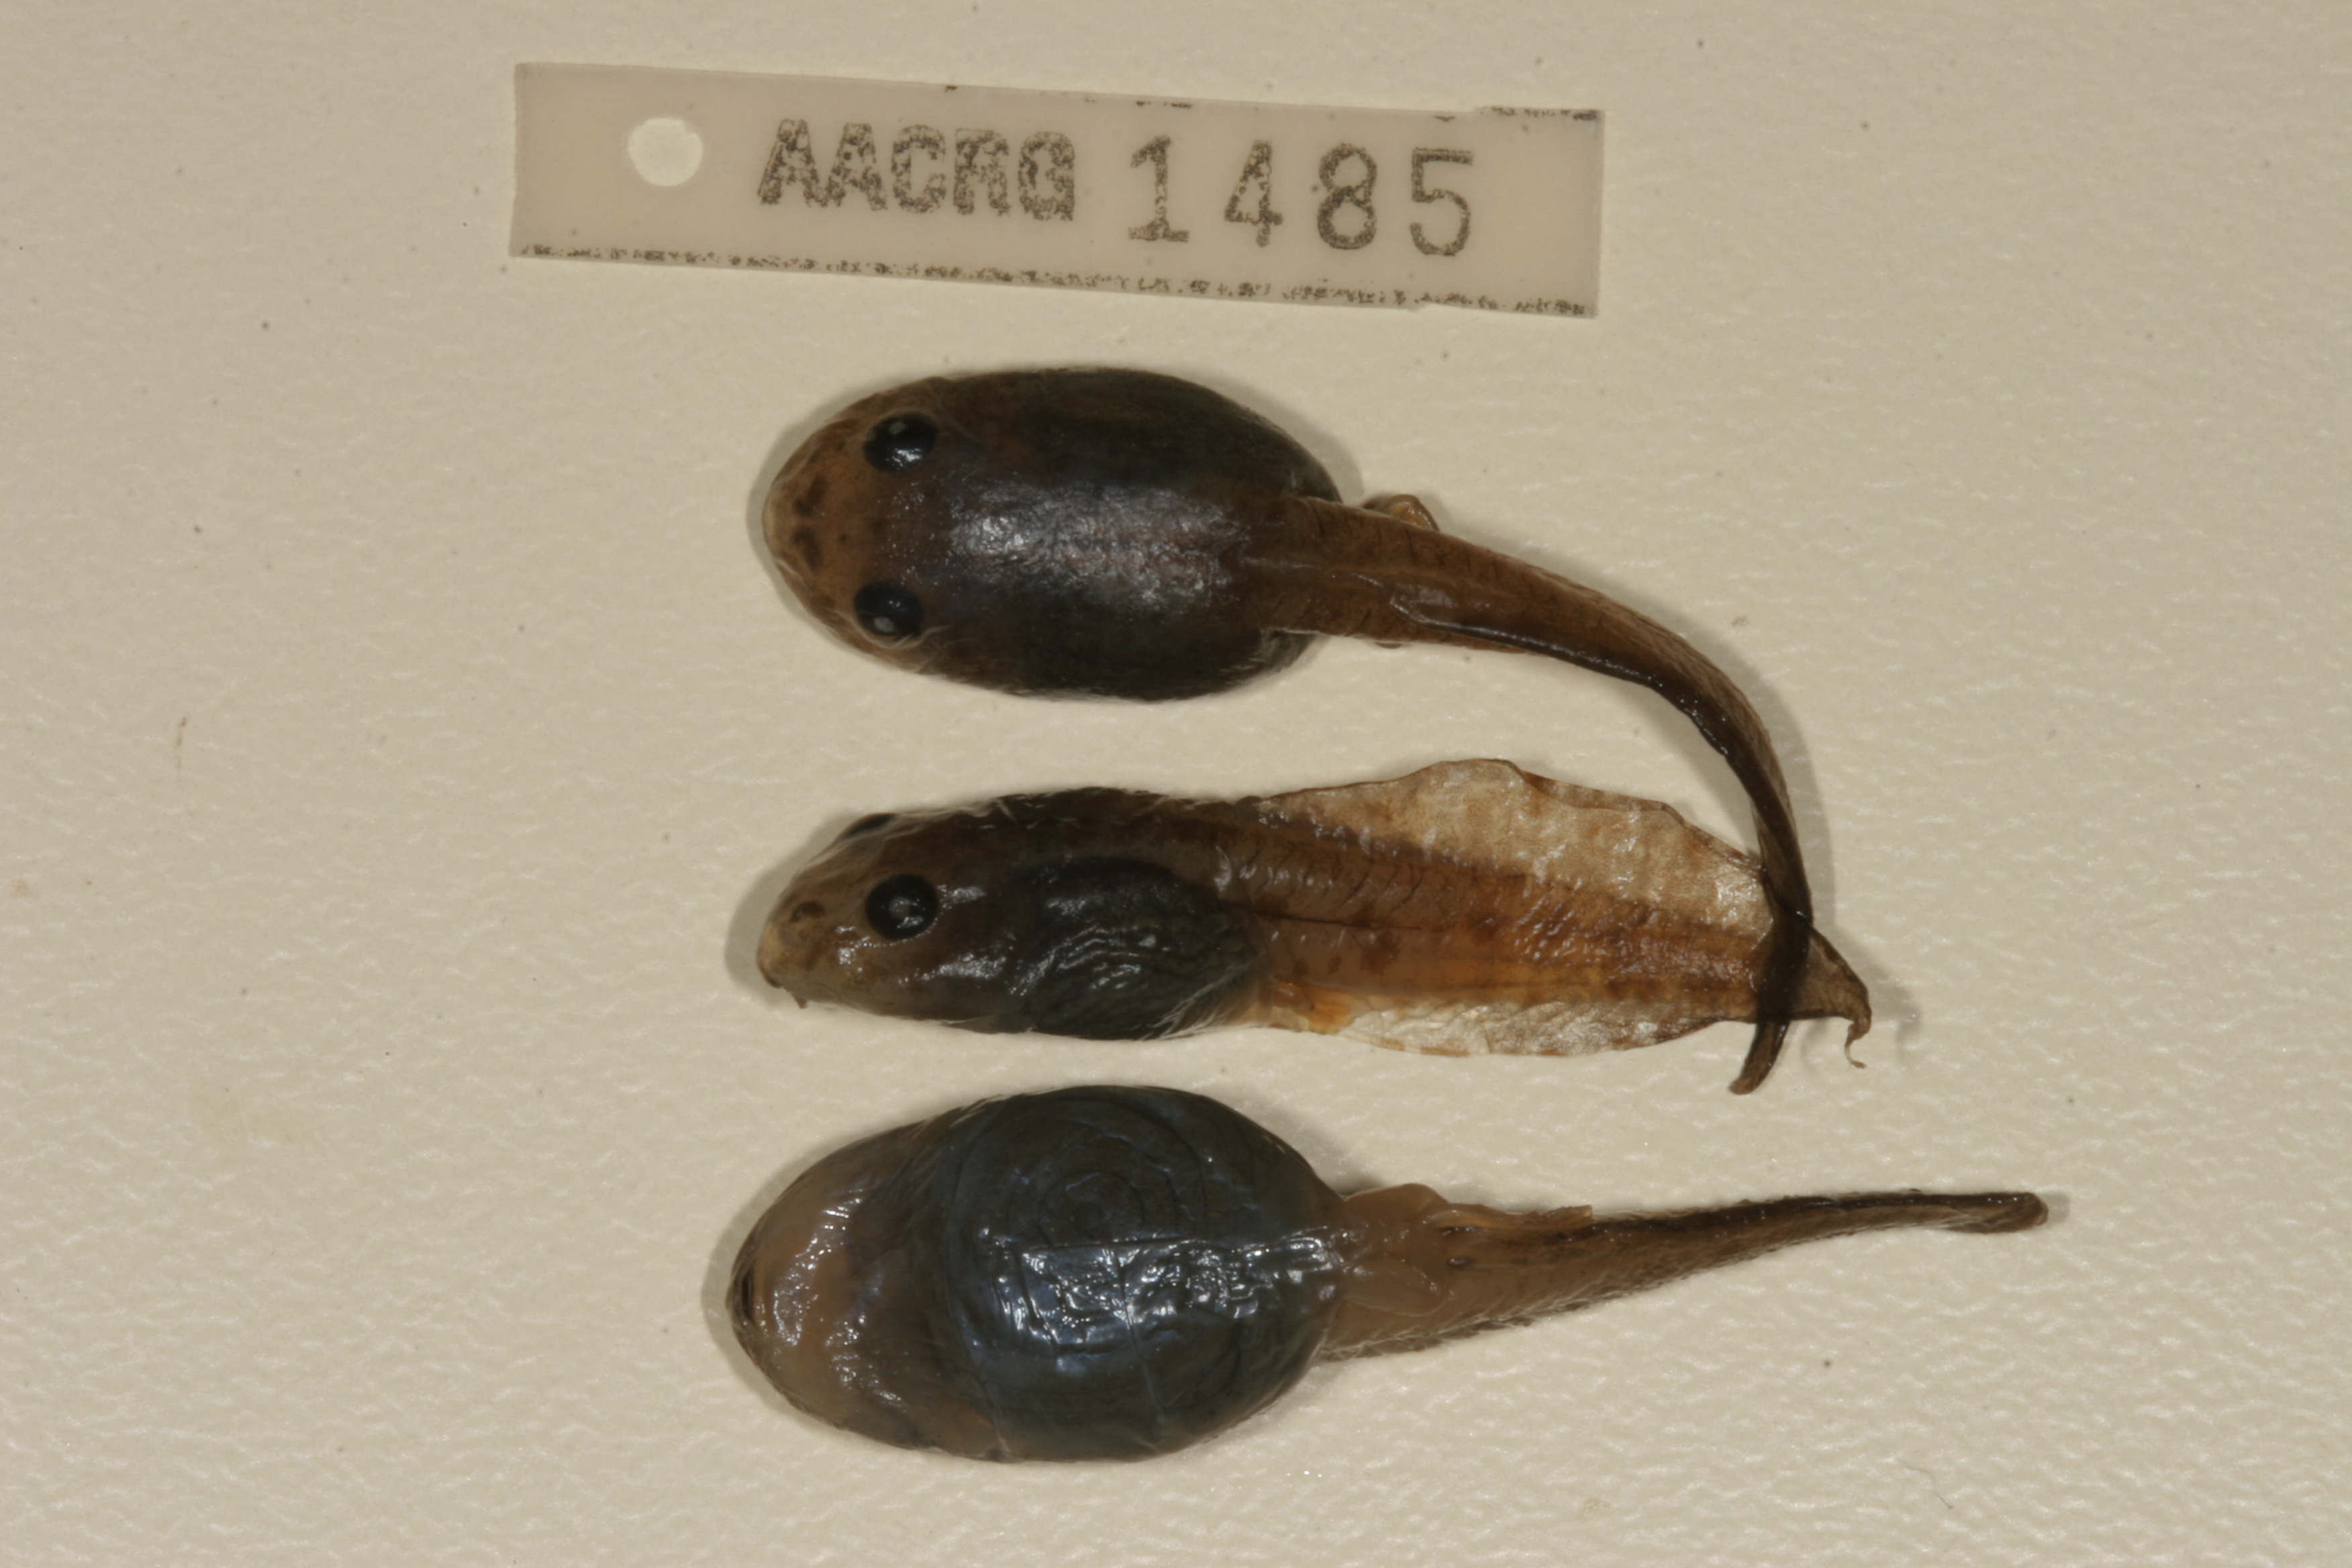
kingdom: Animalia
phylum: Chordata
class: Amphibia
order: Anura
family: Rhacophoridae
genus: Chiromantis
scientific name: Chiromantis xerampelina
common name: African gray treefrog
